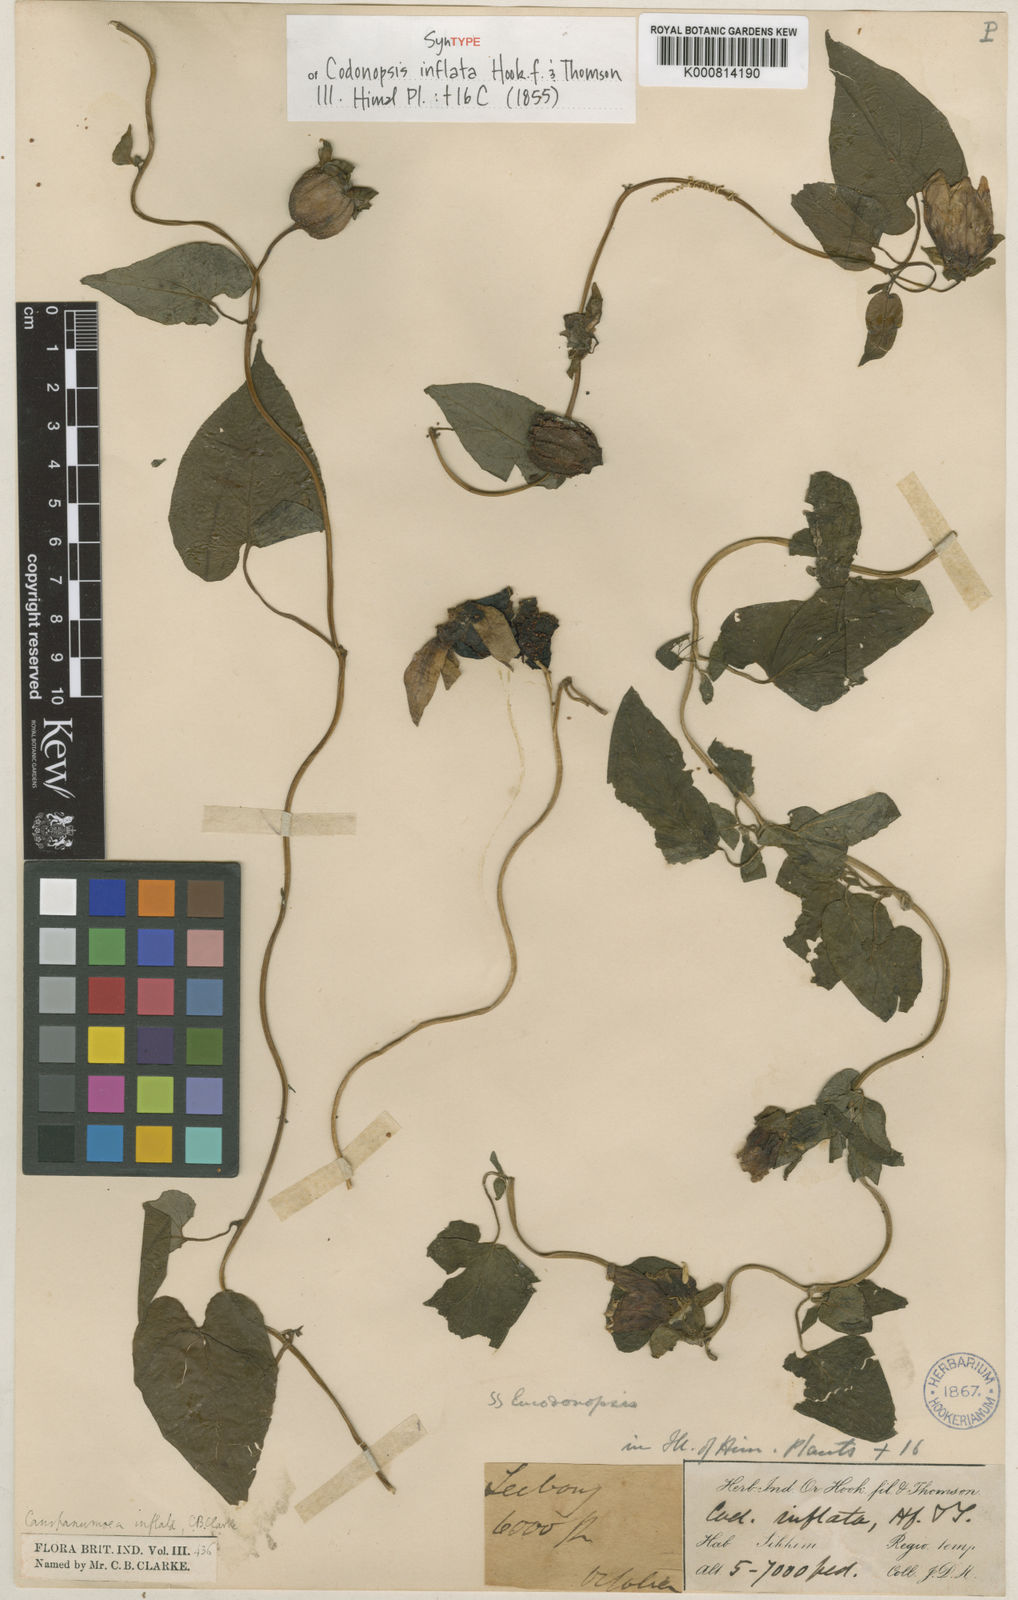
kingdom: Plantae
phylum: Tracheophyta
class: Magnoliopsida
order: Asterales
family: Campanulaceae
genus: Codonopsis
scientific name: Codonopsis inflata
